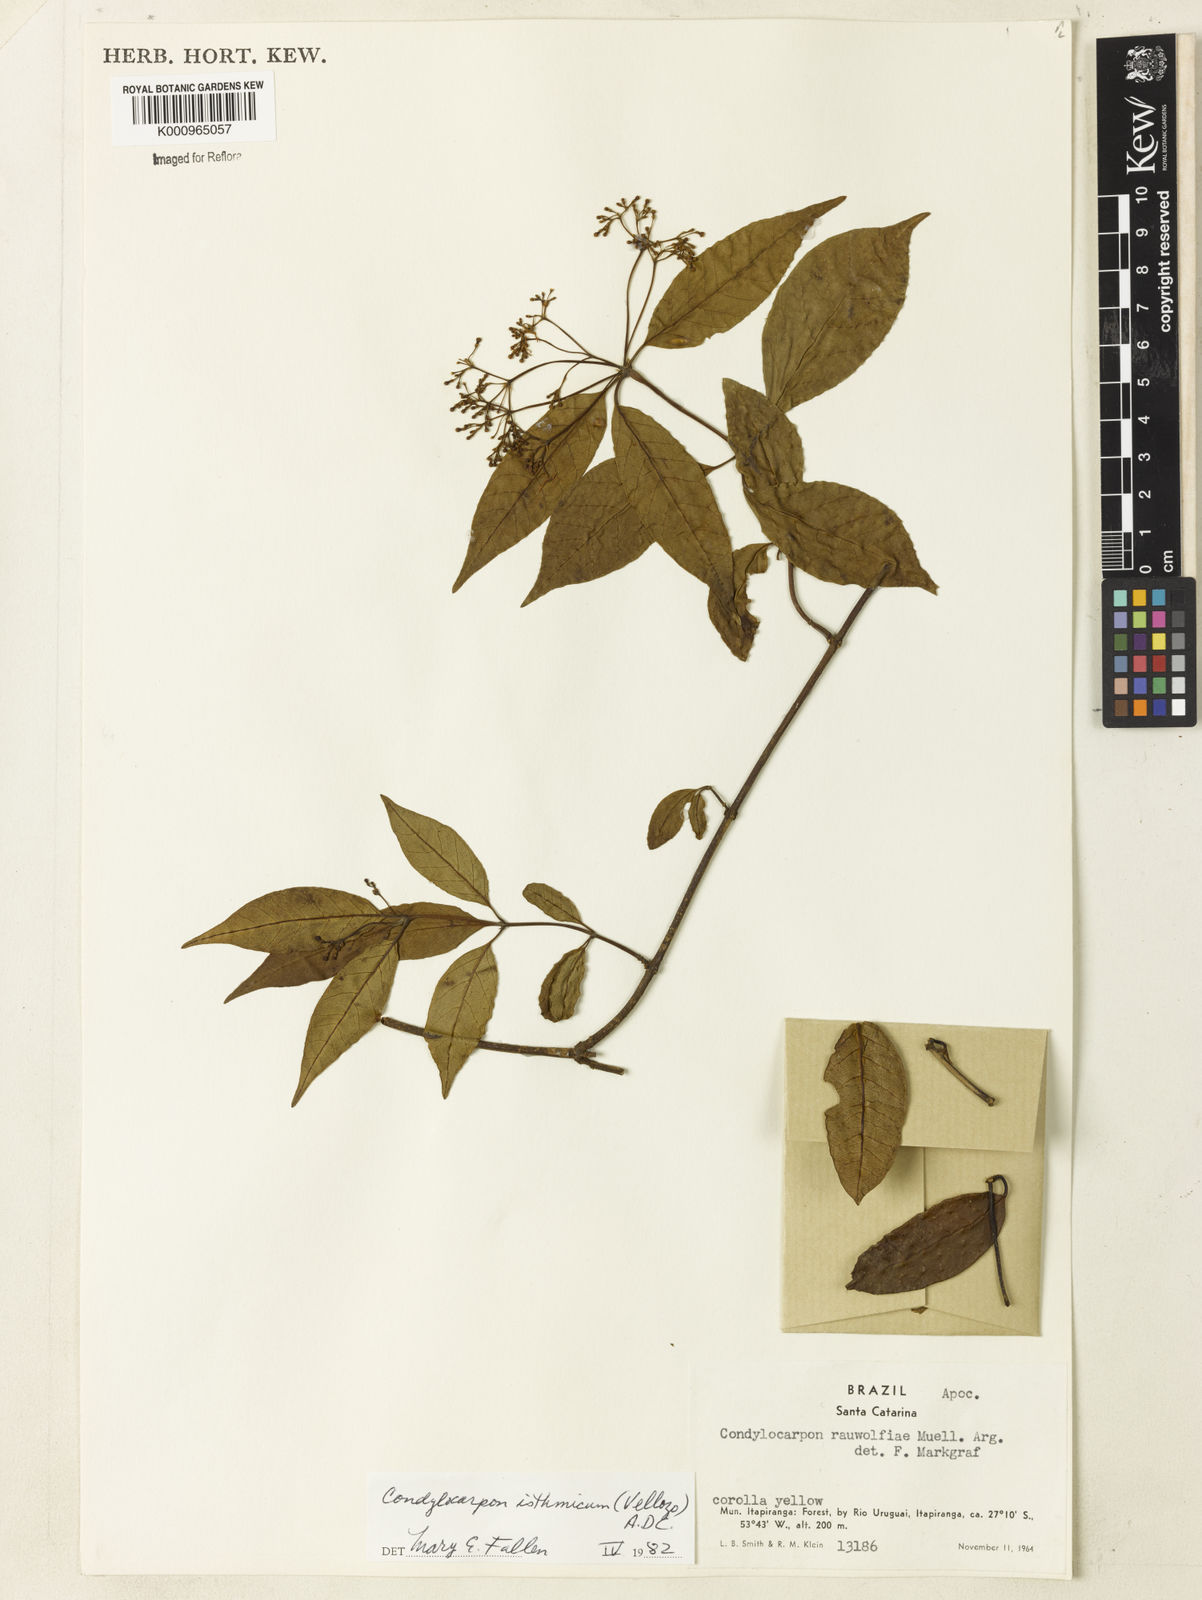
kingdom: Plantae
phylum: Tracheophyta
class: Magnoliopsida
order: Gentianales
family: Apocynaceae
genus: Condylocarpon
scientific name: Condylocarpon isthmicum
